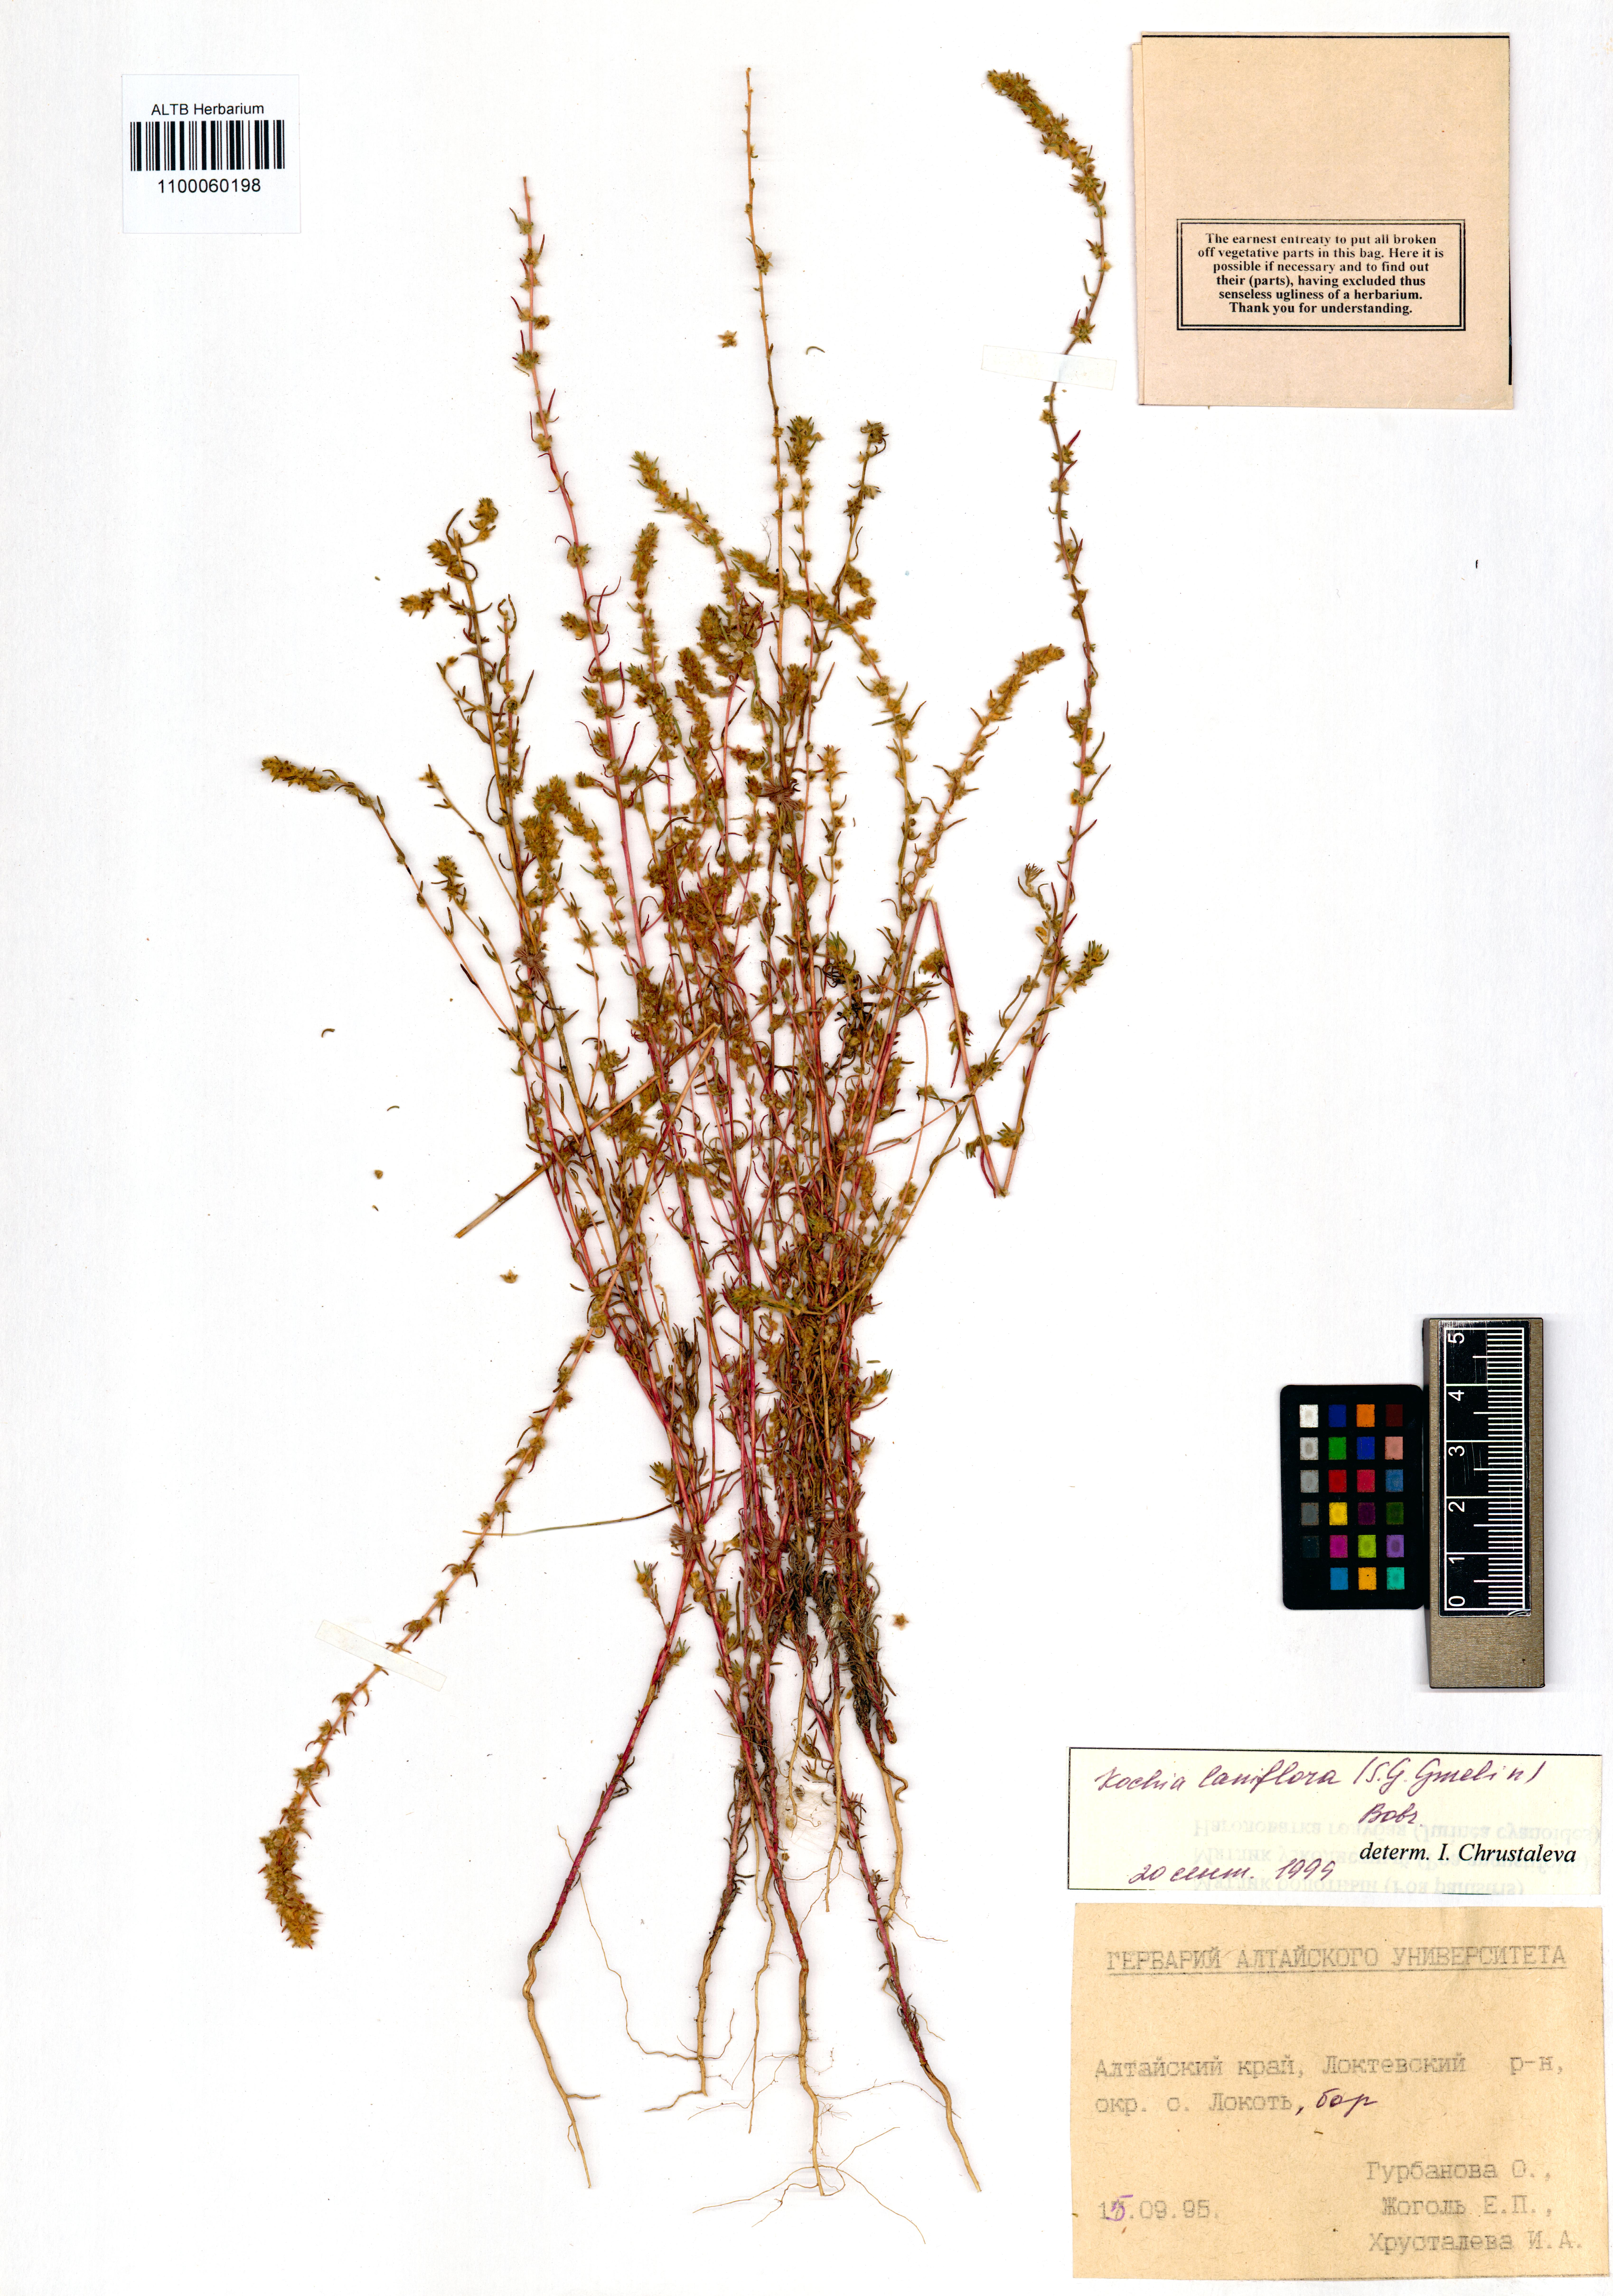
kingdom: Plantae
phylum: Tracheophyta
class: Magnoliopsida
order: Caryophyllales
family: Amaranthaceae
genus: Bassia
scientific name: Bassia laniflora
